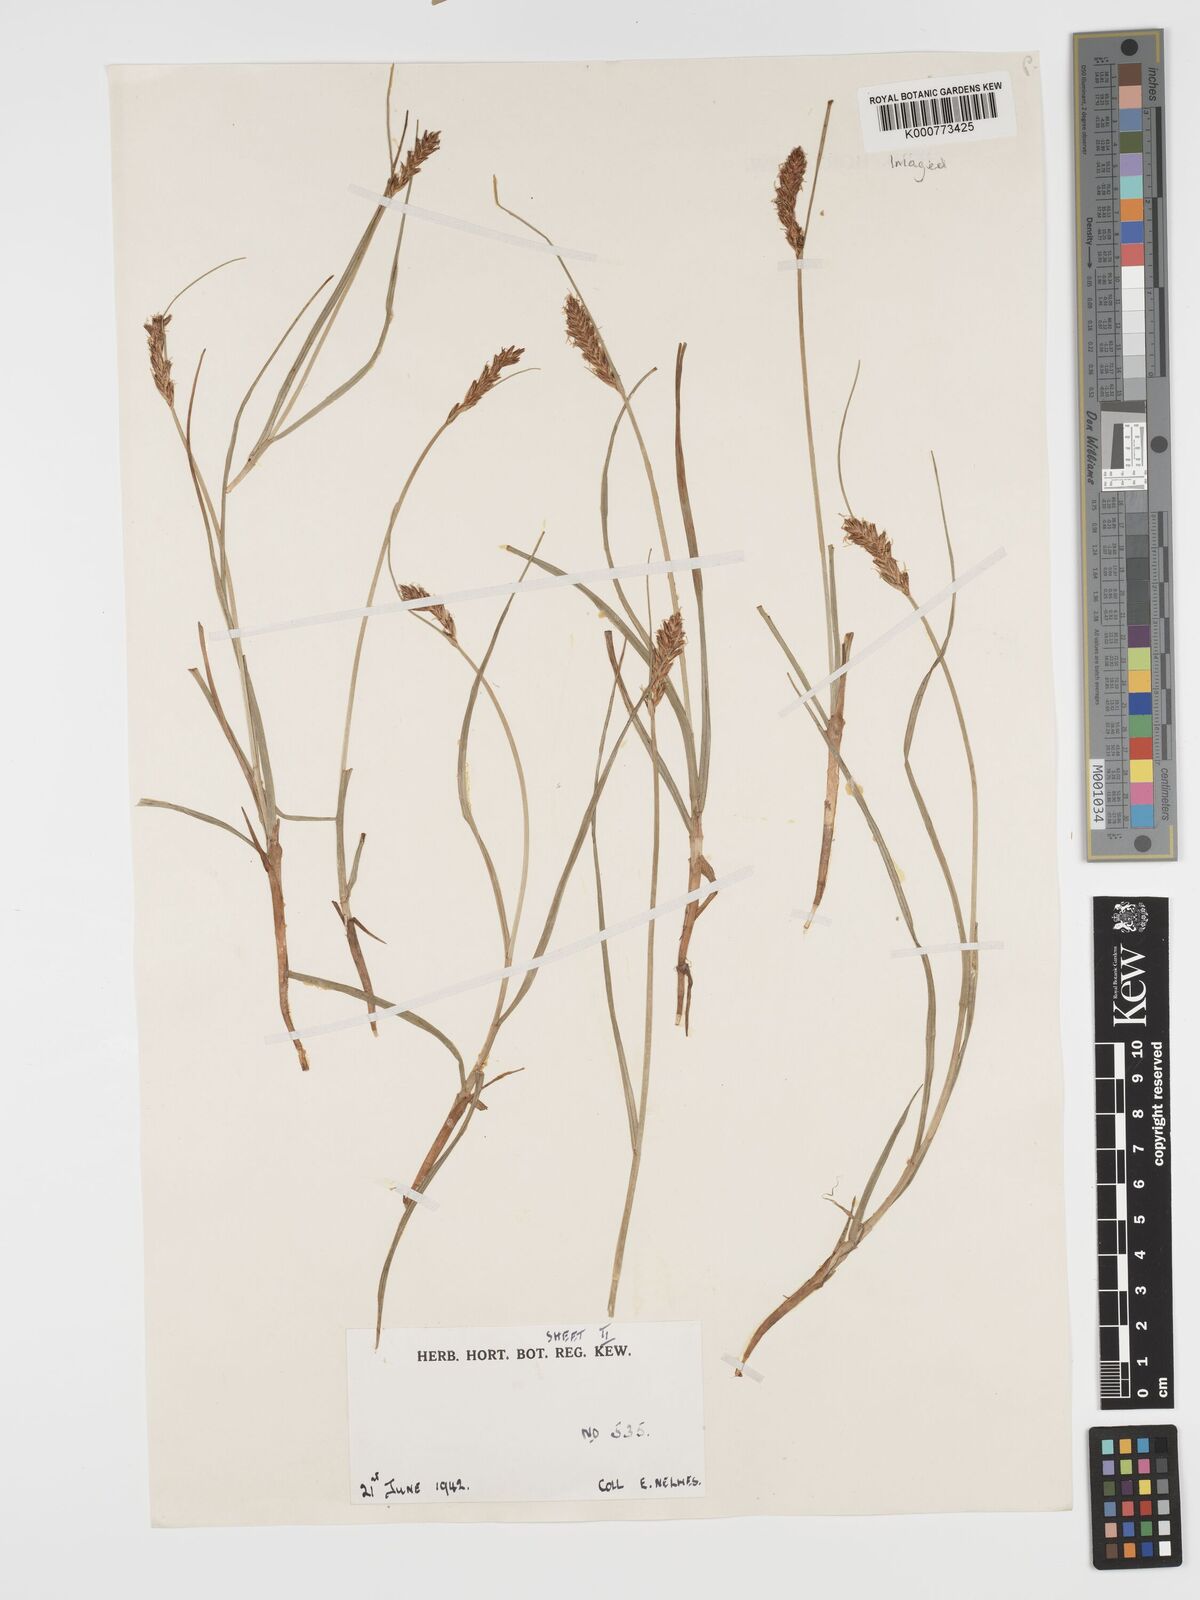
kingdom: Plantae
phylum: Tracheophyta
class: Liliopsida
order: Poales
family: Cyperaceae
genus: Blysmus
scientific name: Blysmus compressus
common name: Flat-sedge
